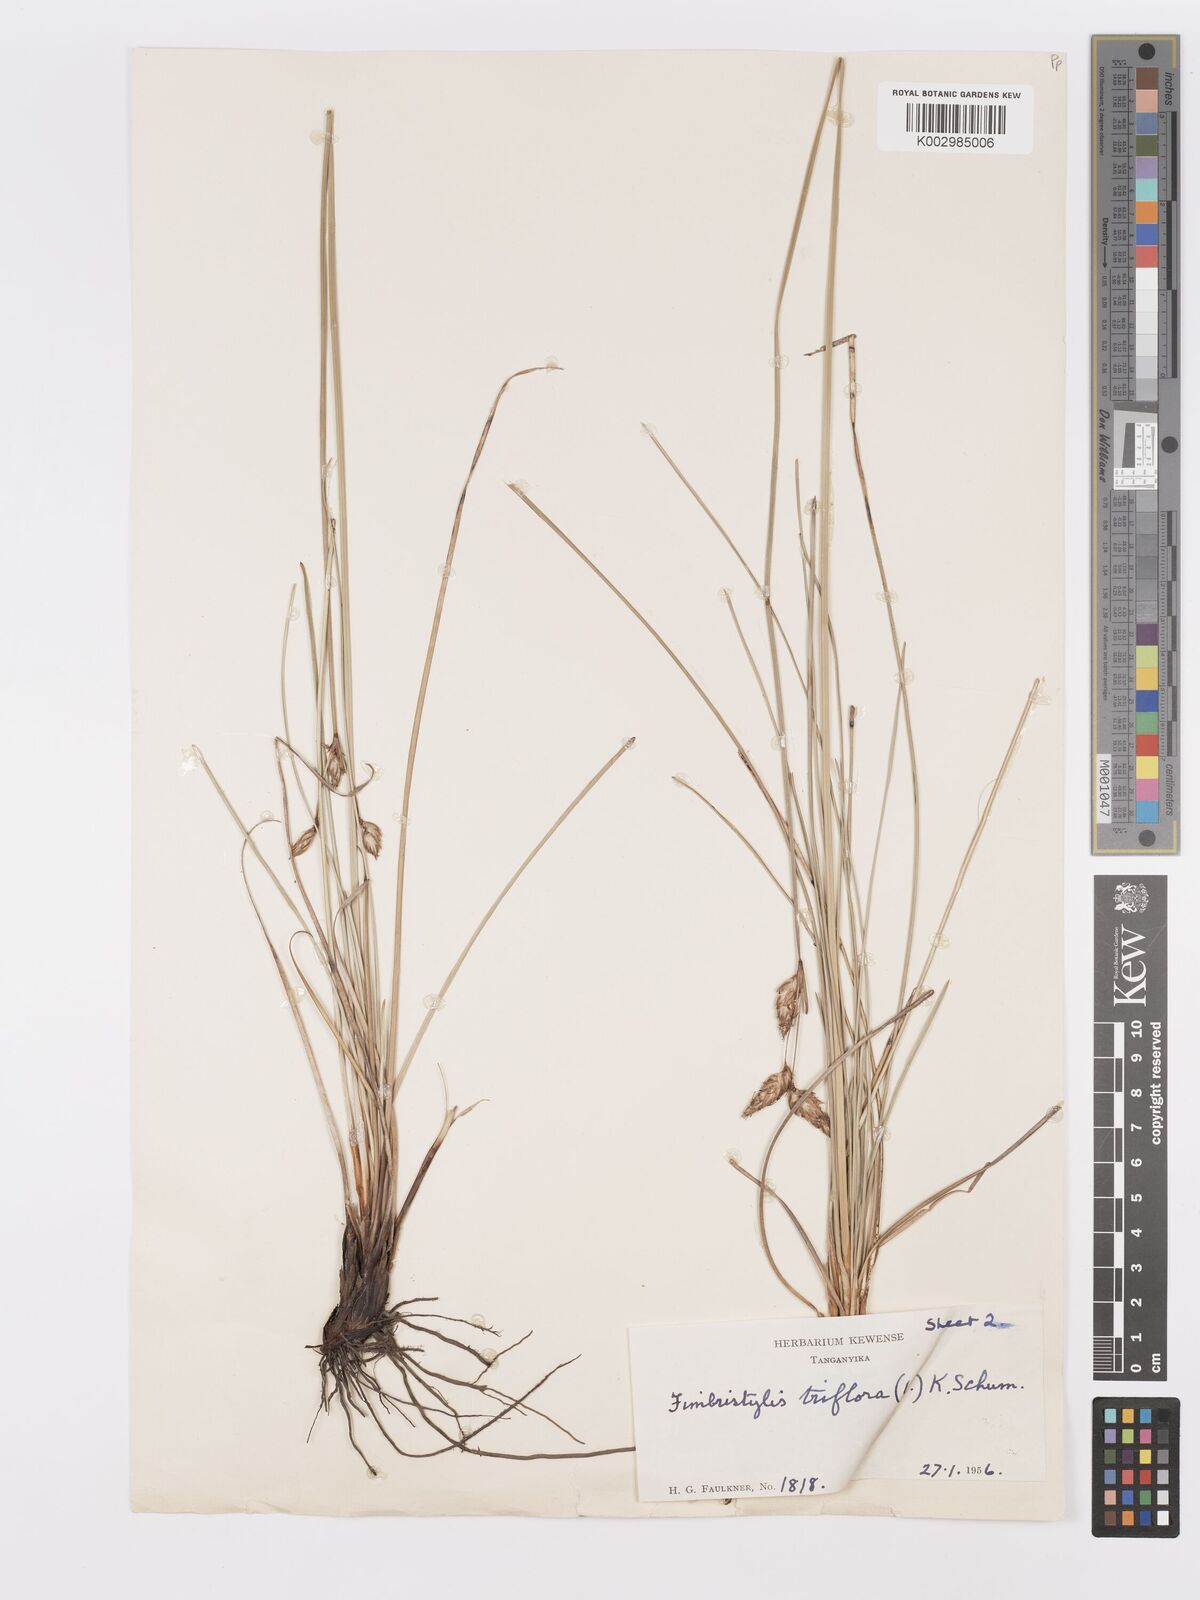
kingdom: Plantae
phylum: Tracheophyta
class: Liliopsida
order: Poales
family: Cyperaceae
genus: Abildgaardia
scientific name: Abildgaardia triflora
